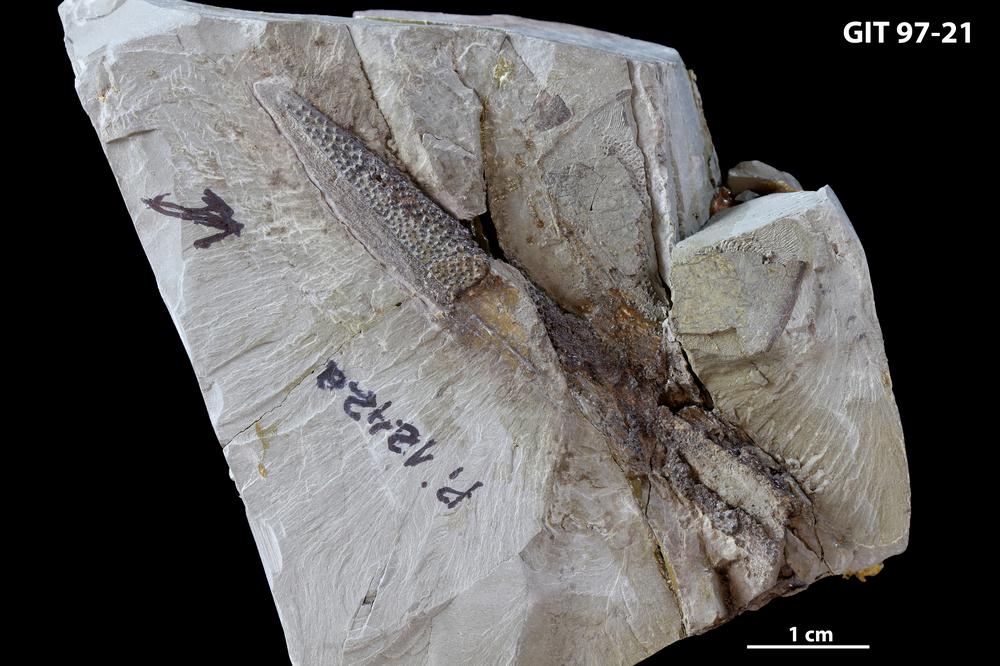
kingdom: Animalia
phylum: Chordata
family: Holonematidae
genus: Holonema
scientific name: Holonema
